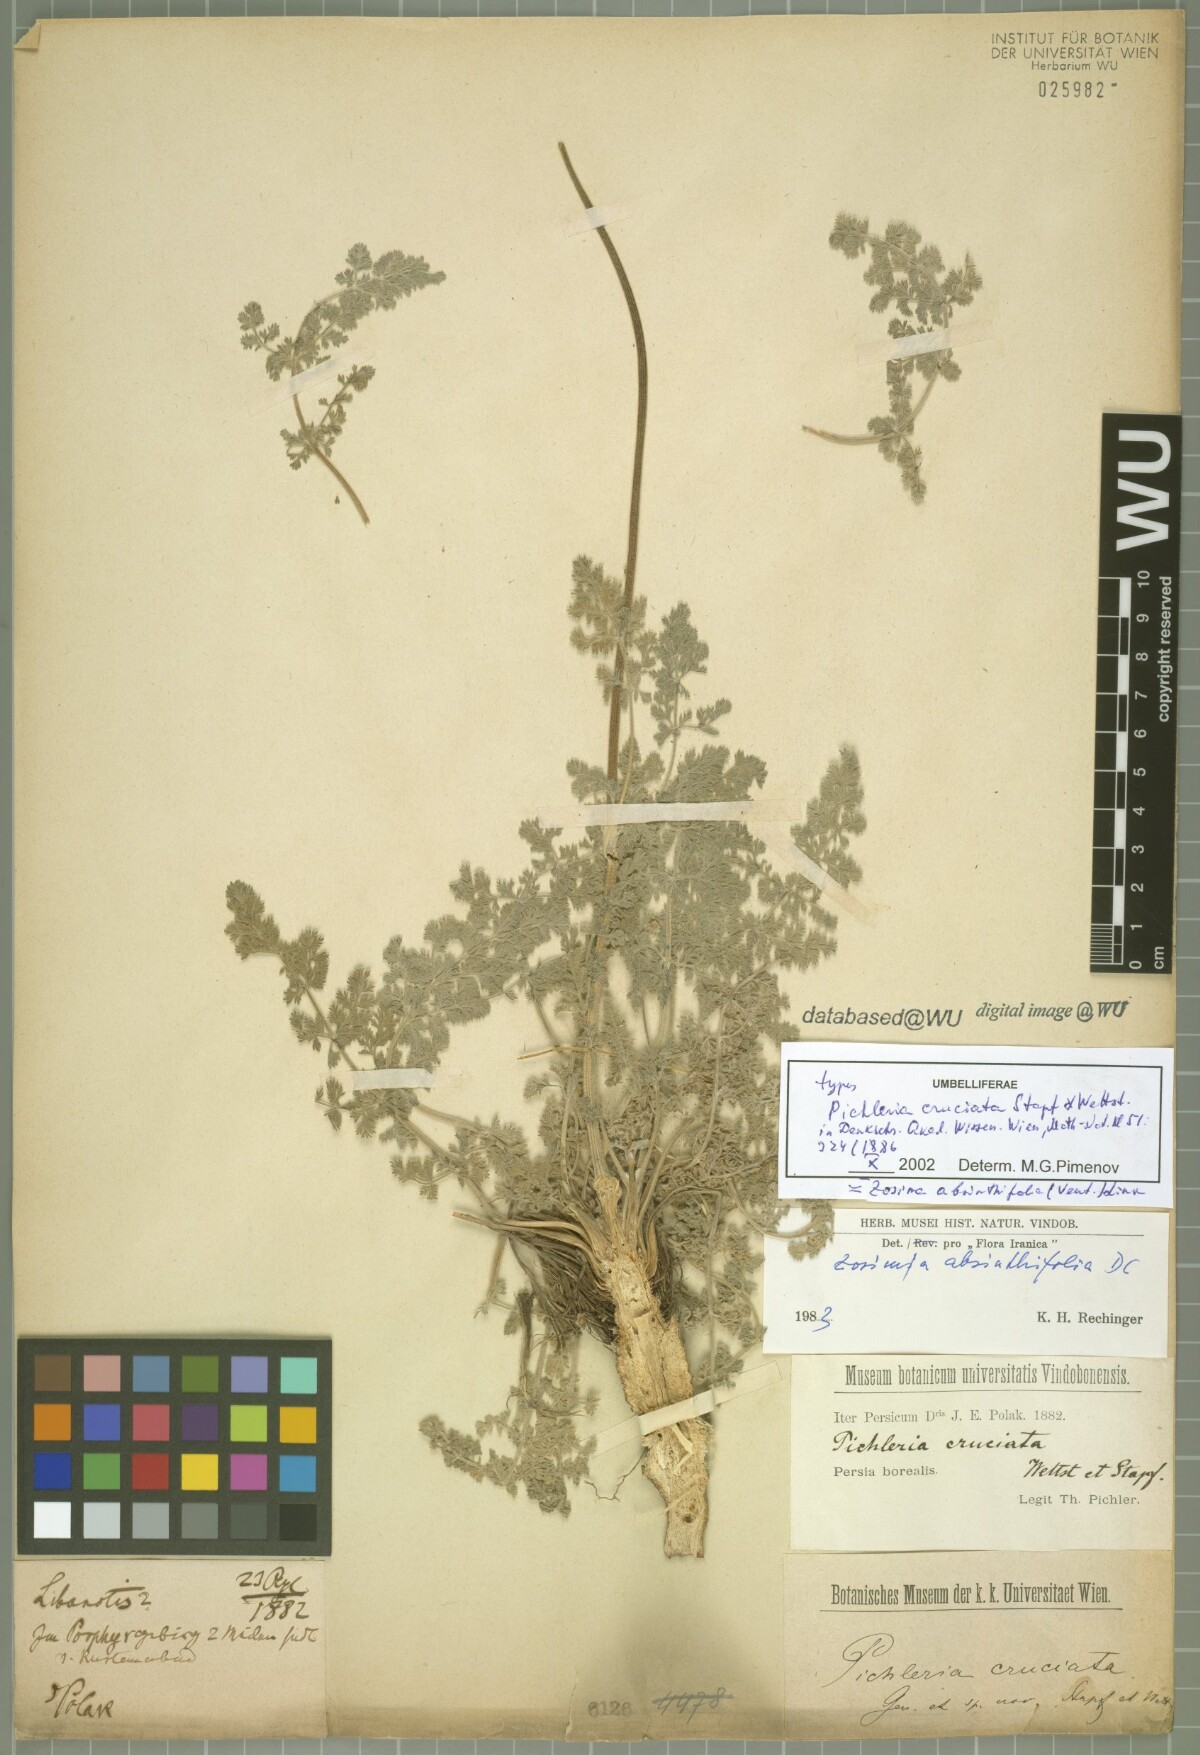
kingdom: Plantae
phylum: Tracheophyta
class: Magnoliopsida
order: Apiales
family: Apiaceae
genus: Zosima
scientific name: Zosima absinthiifolia
